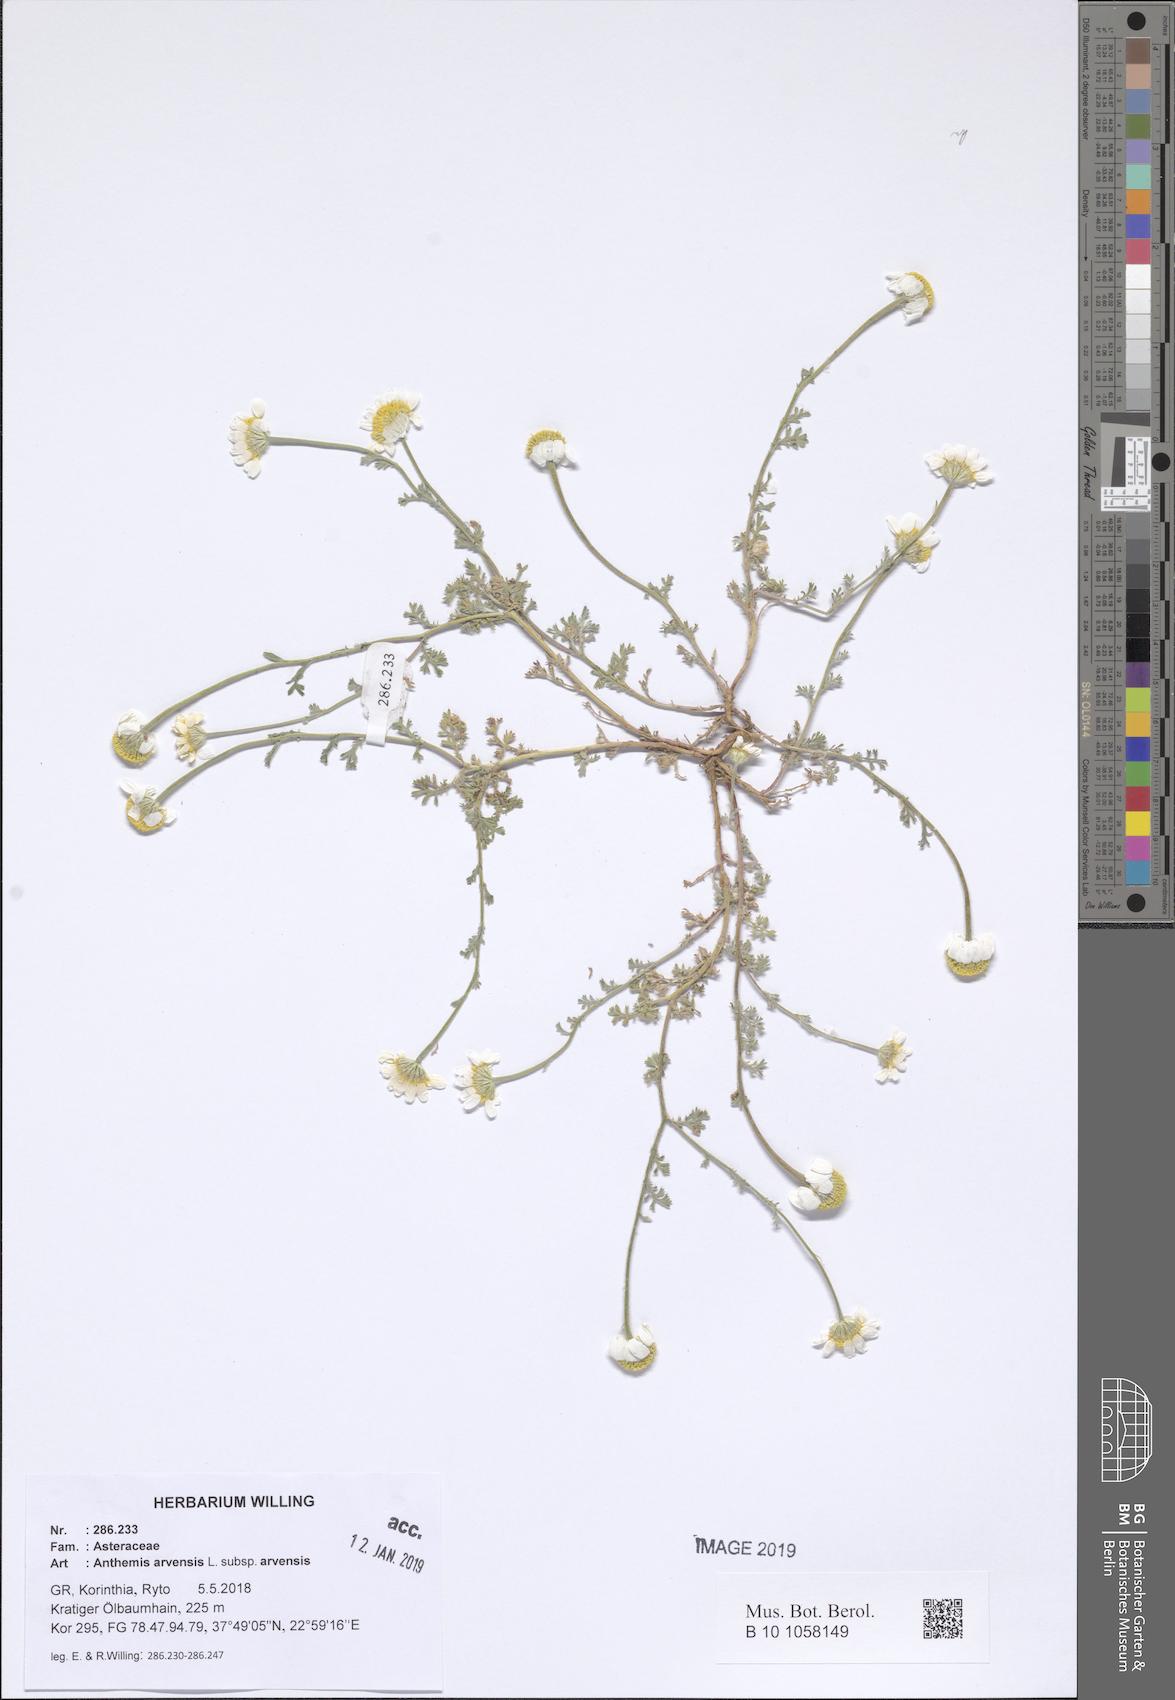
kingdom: Plantae
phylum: Tracheophyta
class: Magnoliopsida
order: Asterales
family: Asteraceae
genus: Anthemis
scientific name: Anthemis arvensis
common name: Corn chamomile
